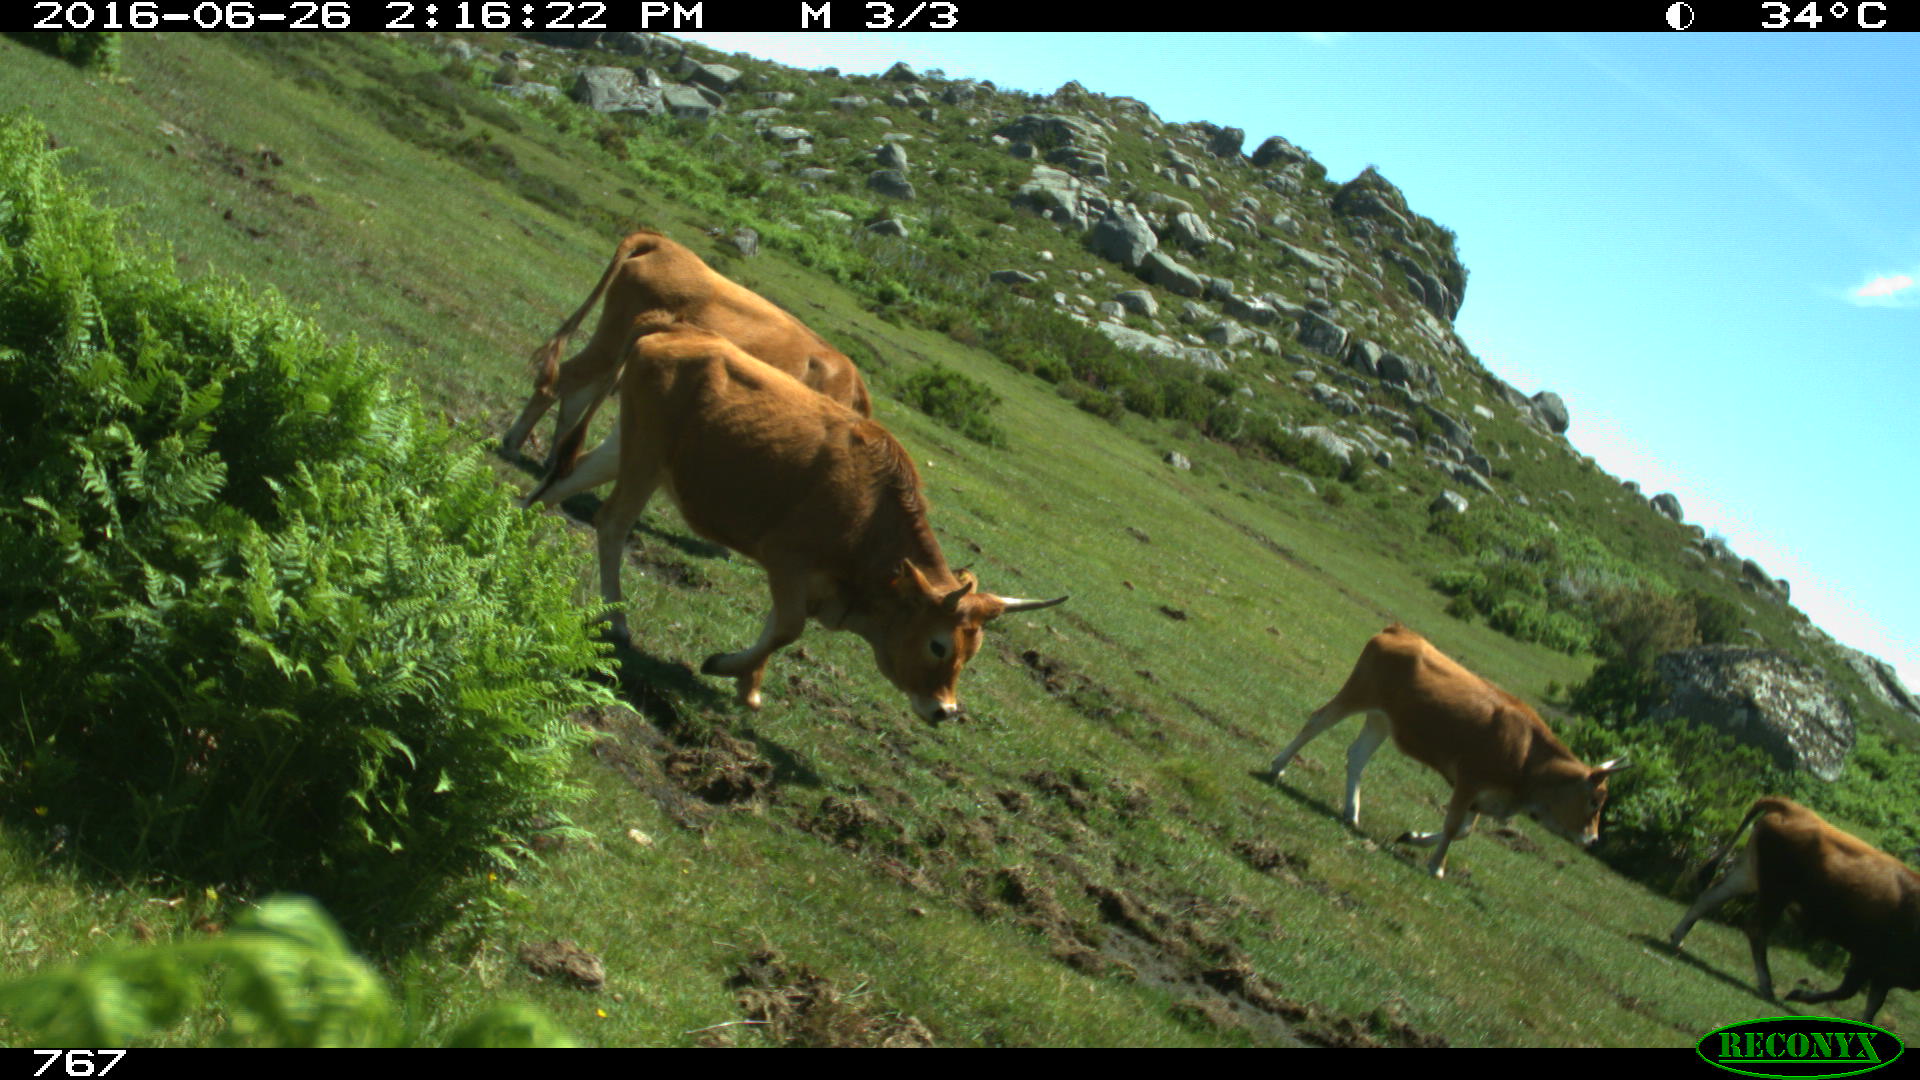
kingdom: Animalia
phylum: Chordata
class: Mammalia
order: Artiodactyla
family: Bovidae
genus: Bos
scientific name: Bos taurus
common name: Domesticated cattle
